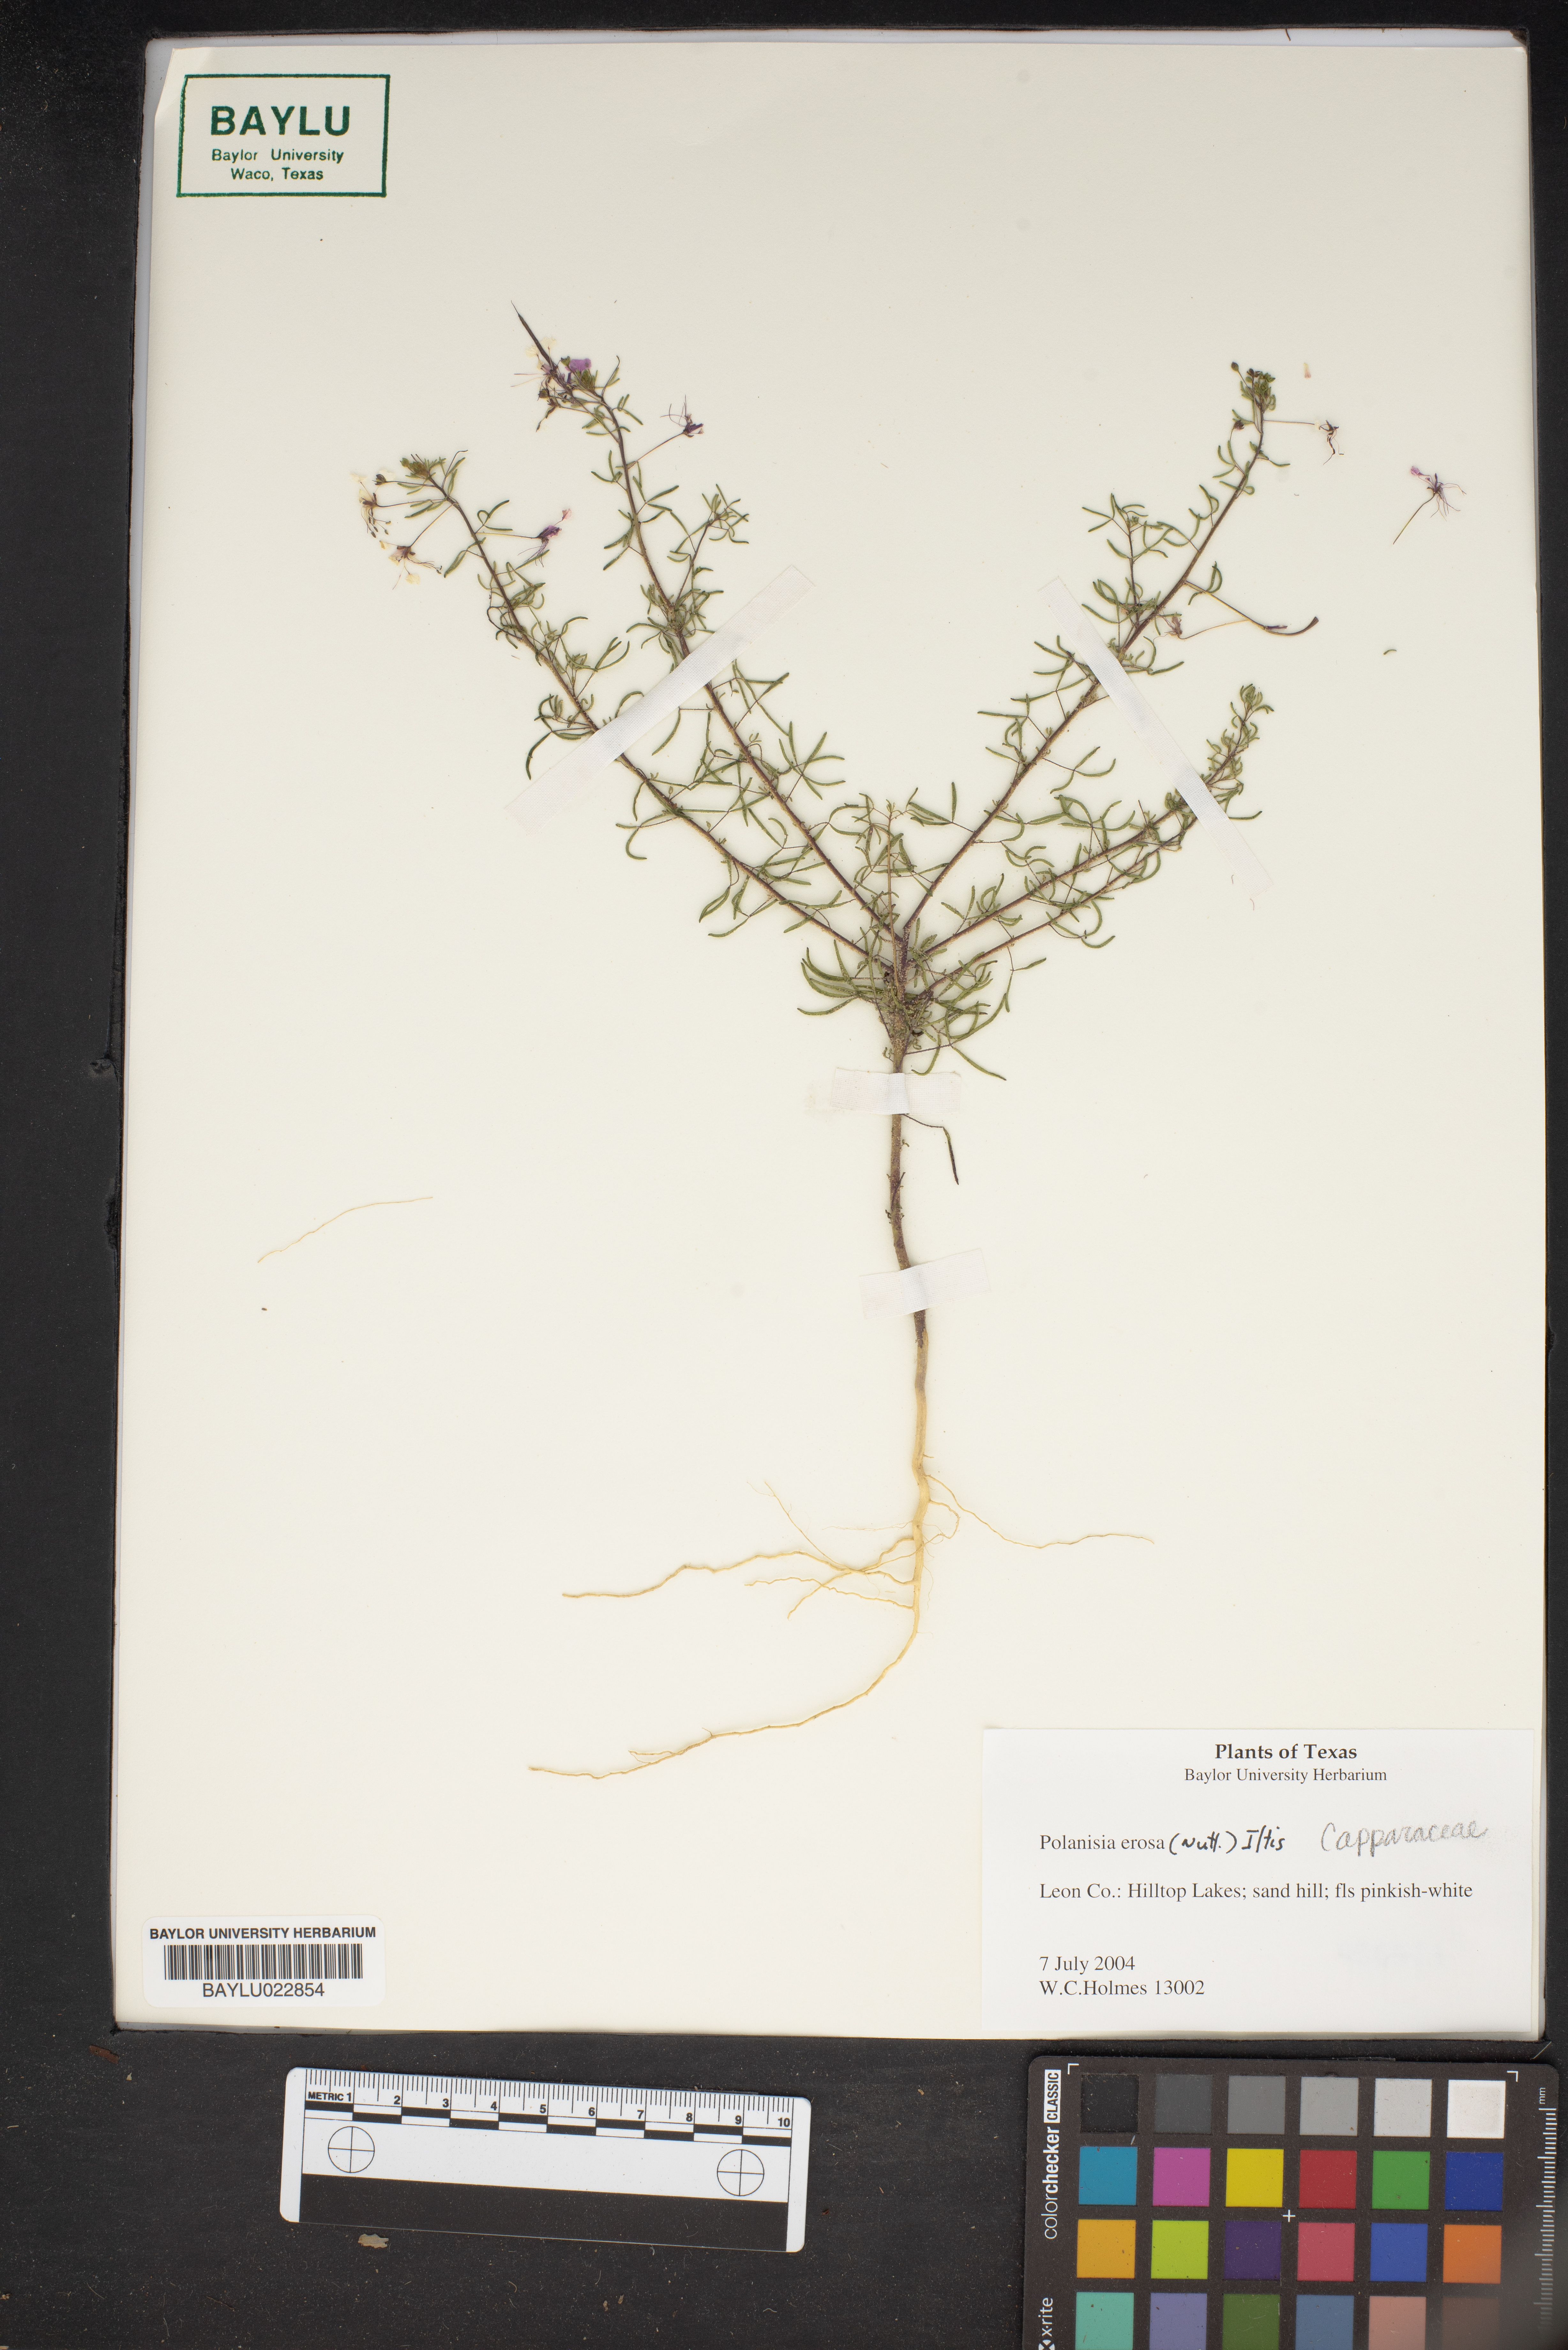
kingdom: Plantae
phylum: Tracheophyta
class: Magnoliopsida
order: Brassicales
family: Cleomaceae
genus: Polanisia
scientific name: Polanisia erosa
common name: Large clammyweed
